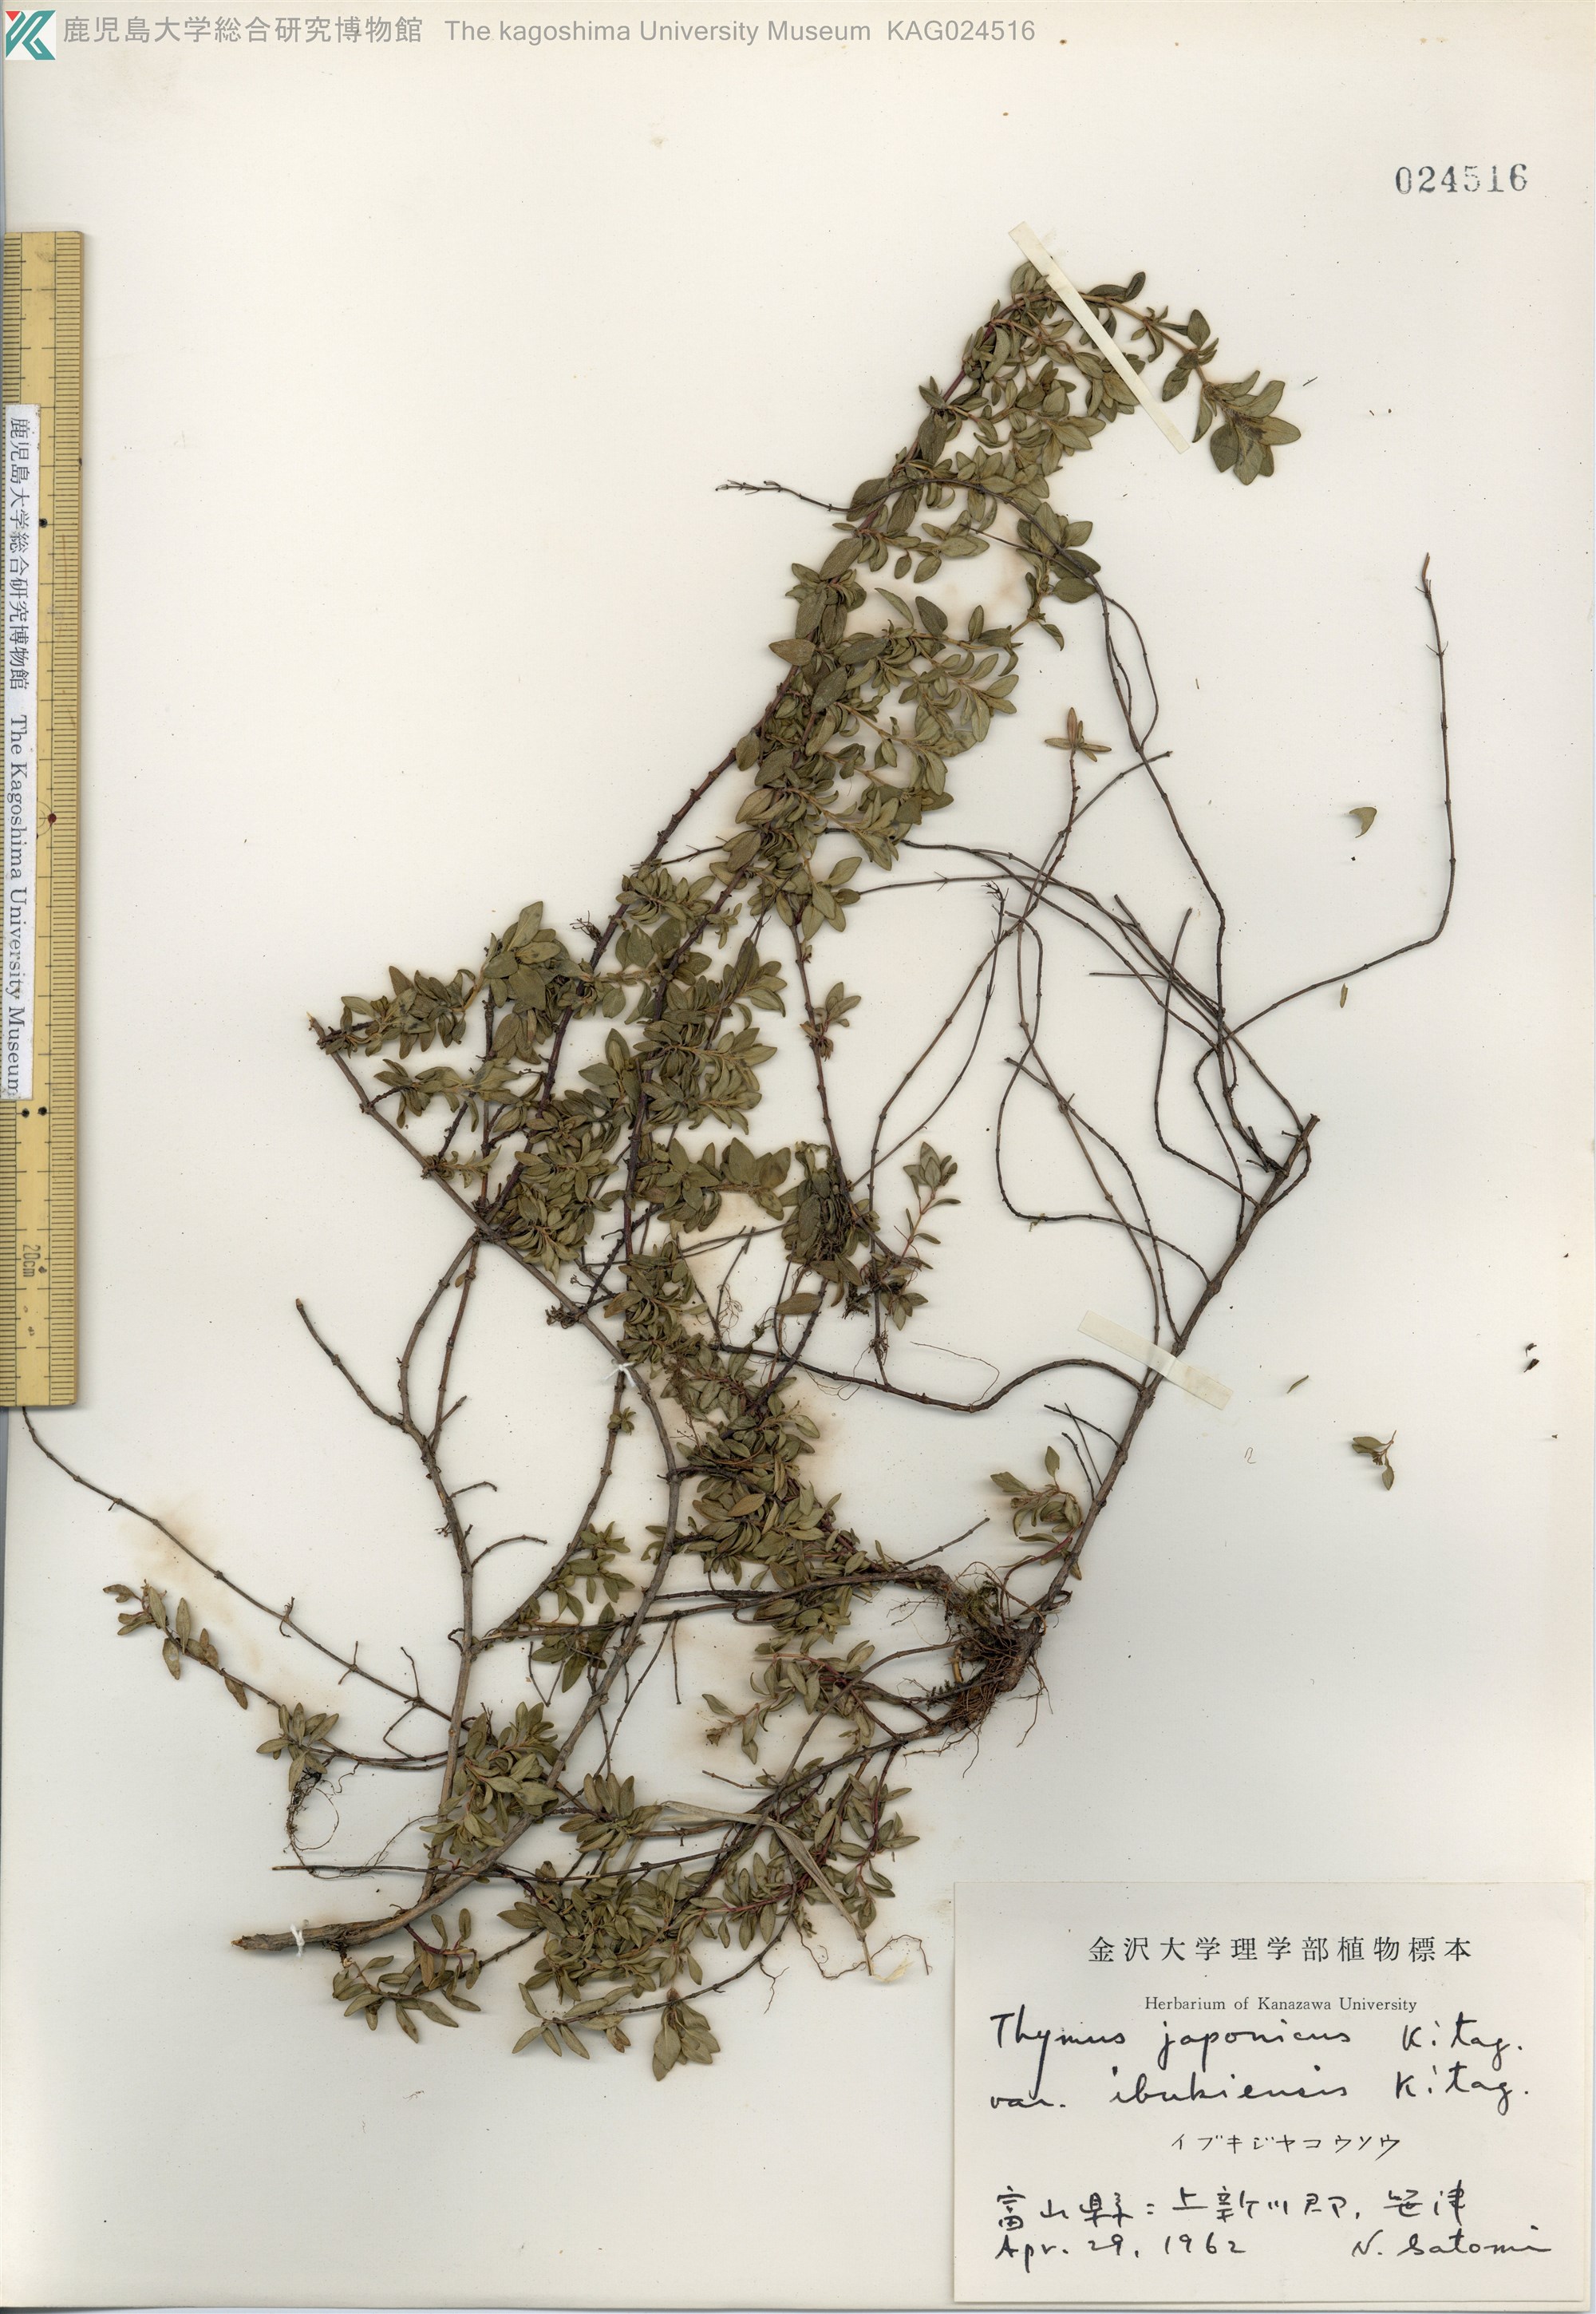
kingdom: Plantae
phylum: Tracheophyta
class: Magnoliopsida
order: Lamiales
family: Lamiaceae
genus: Thymus
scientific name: Thymus quinquecostatus
